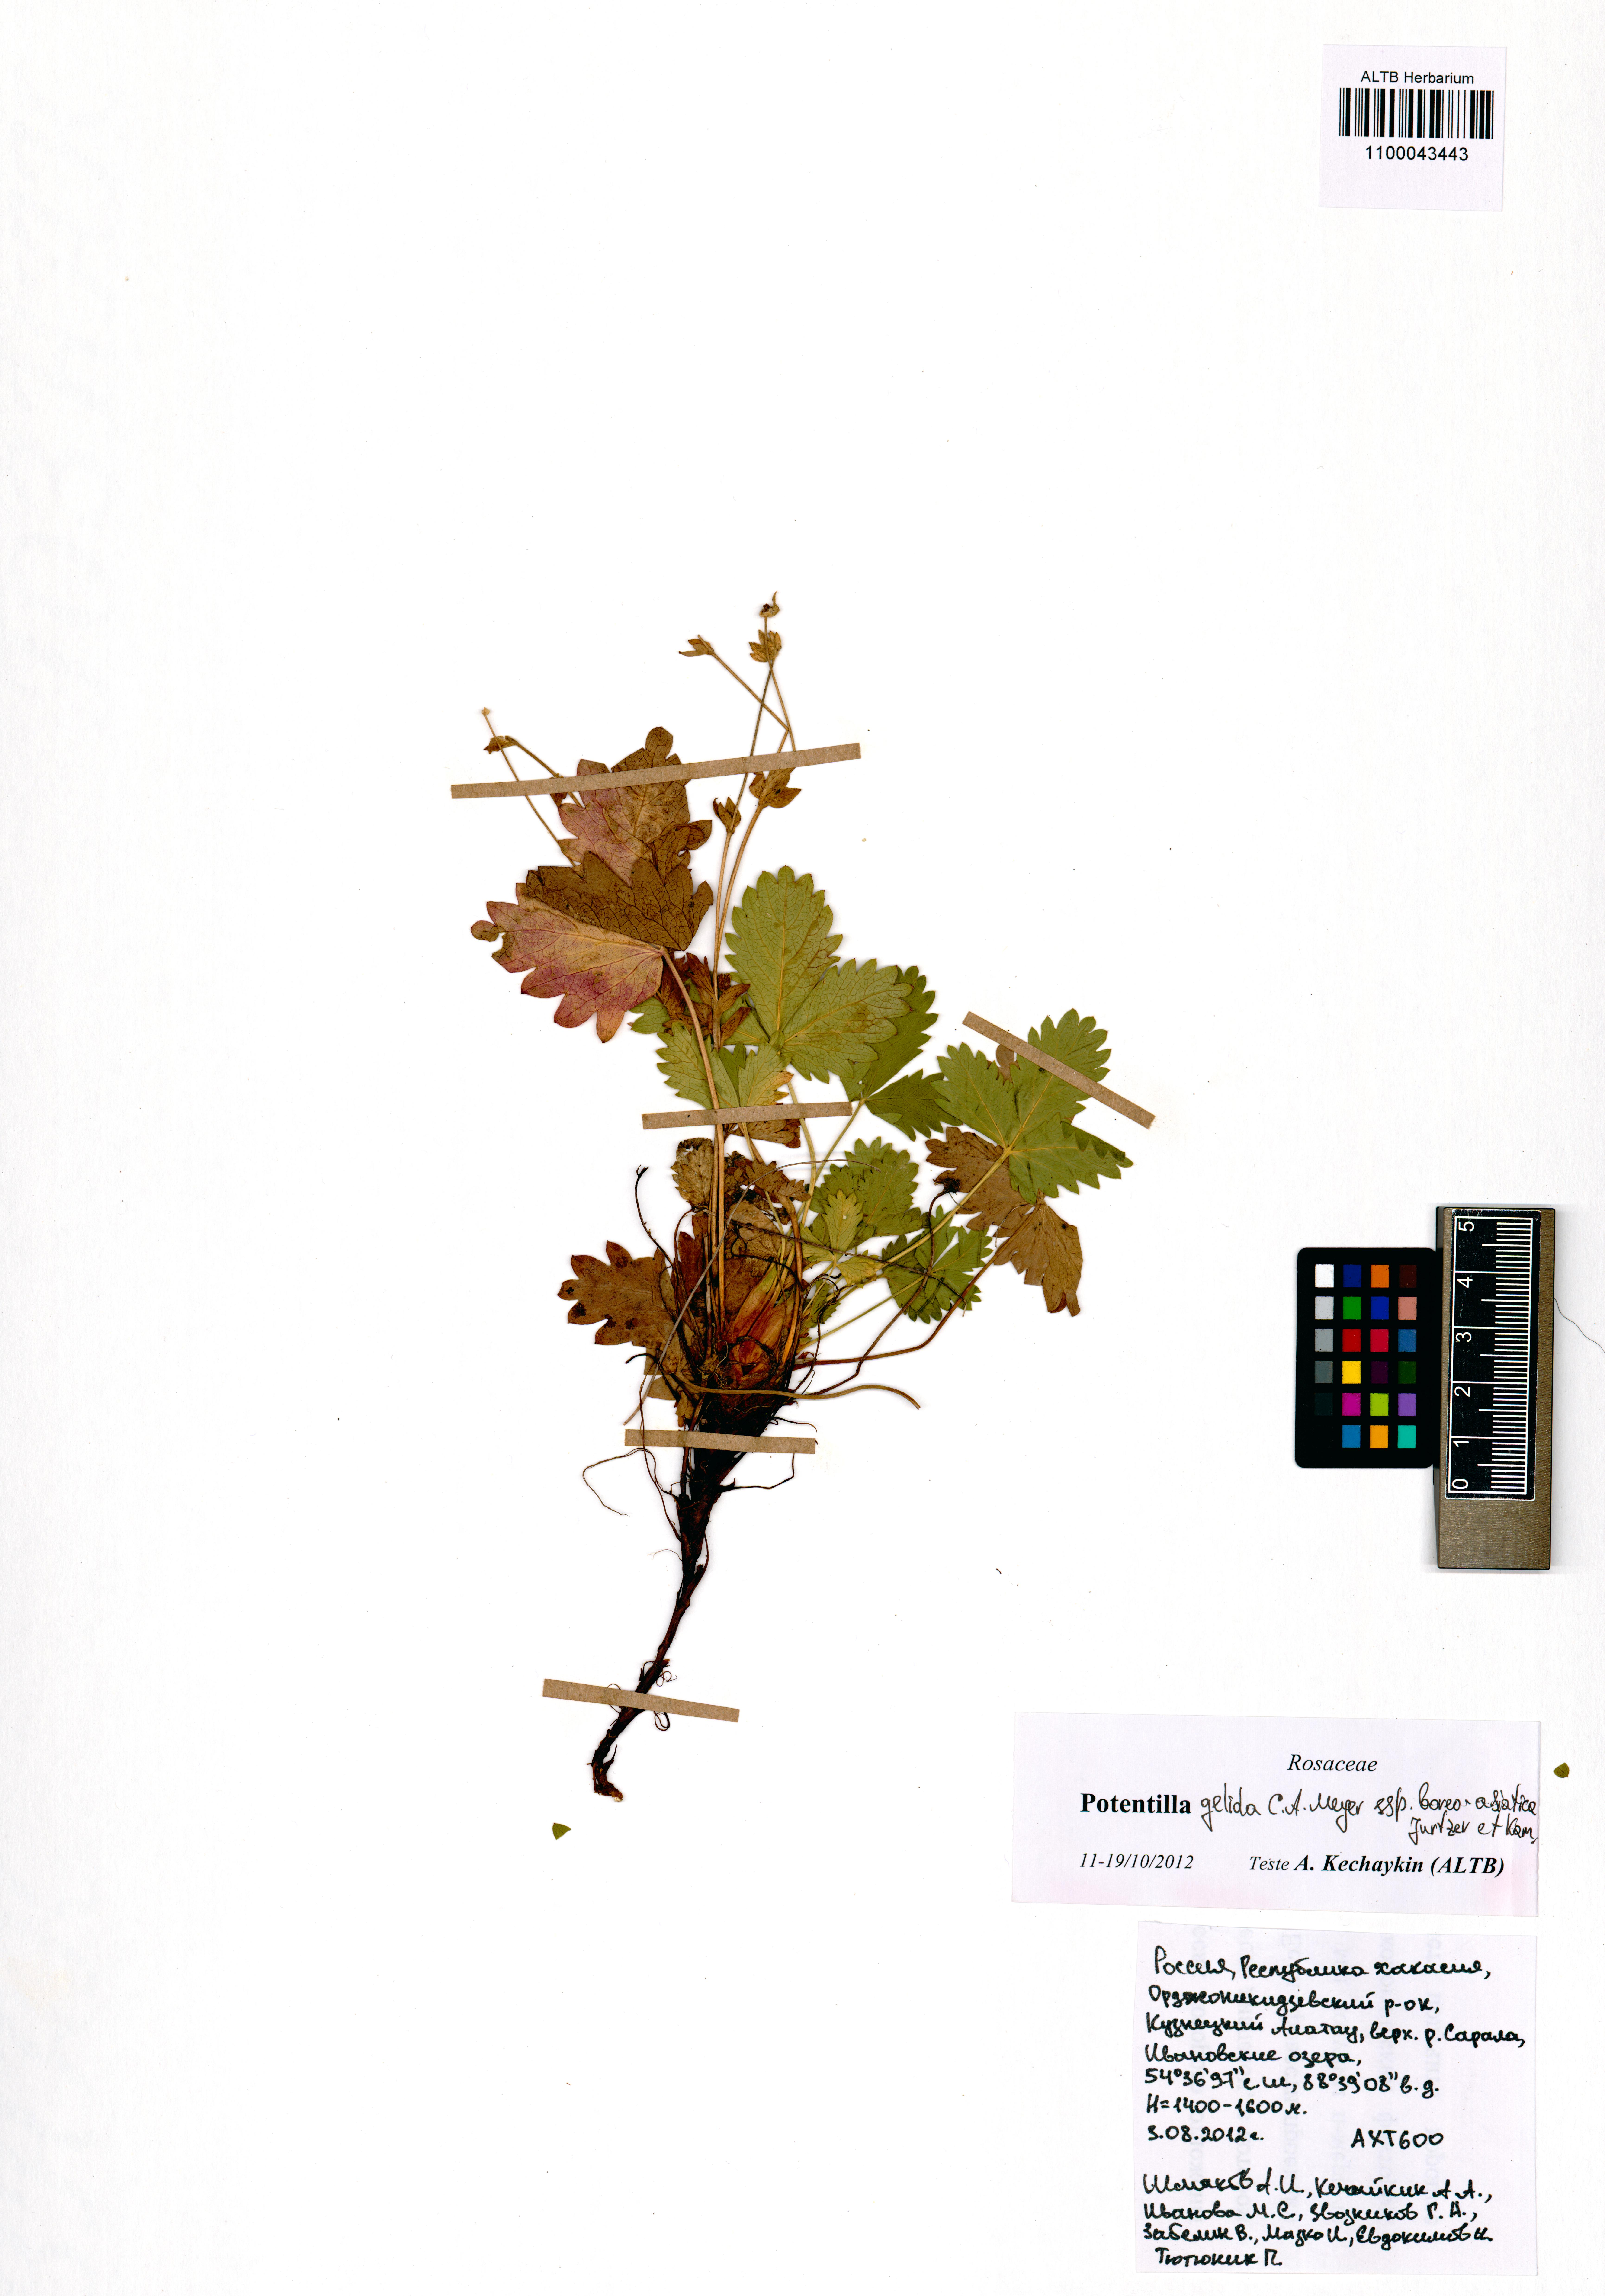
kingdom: Plantae
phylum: Tracheophyta
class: Magnoliopsida
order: Rosales
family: Rosaceae
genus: Potentilla
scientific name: Potentilla crantzii
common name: Alpine cinquefoil
